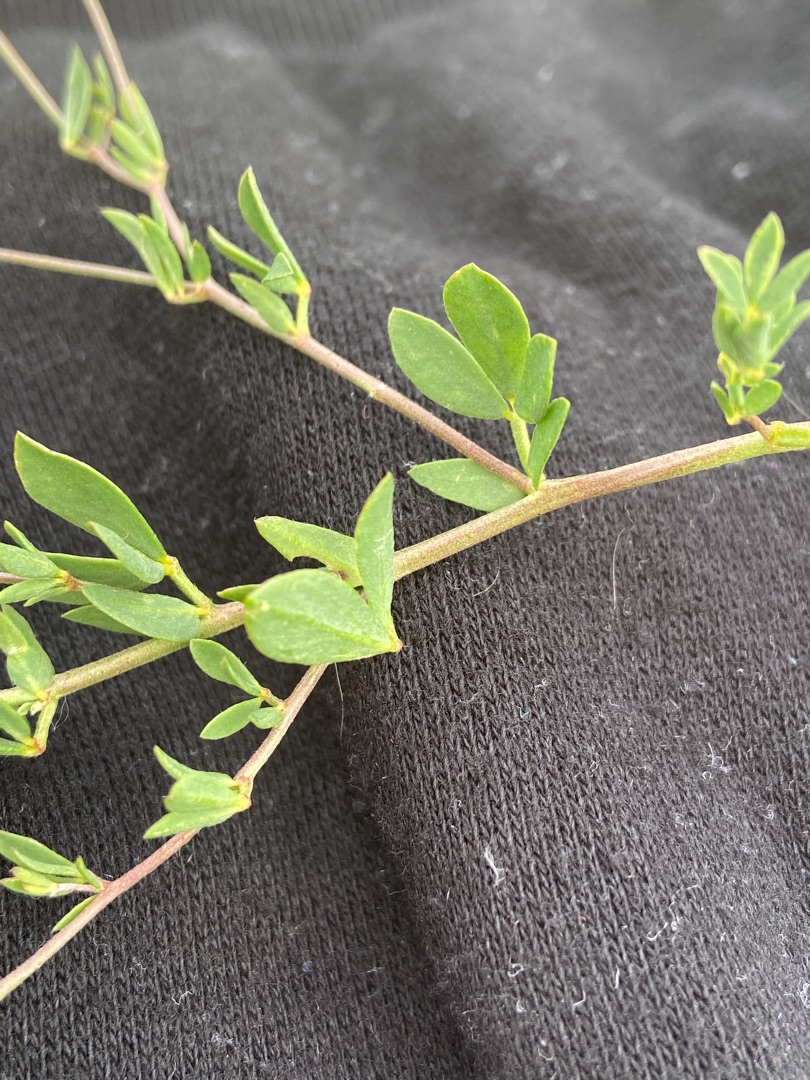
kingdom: Plantae
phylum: Tracheophyta
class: Magnoliopsida
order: Fabales
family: Fabaceae
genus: Lotus
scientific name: Lotus corniculatus
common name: Almindelig kællingetand
